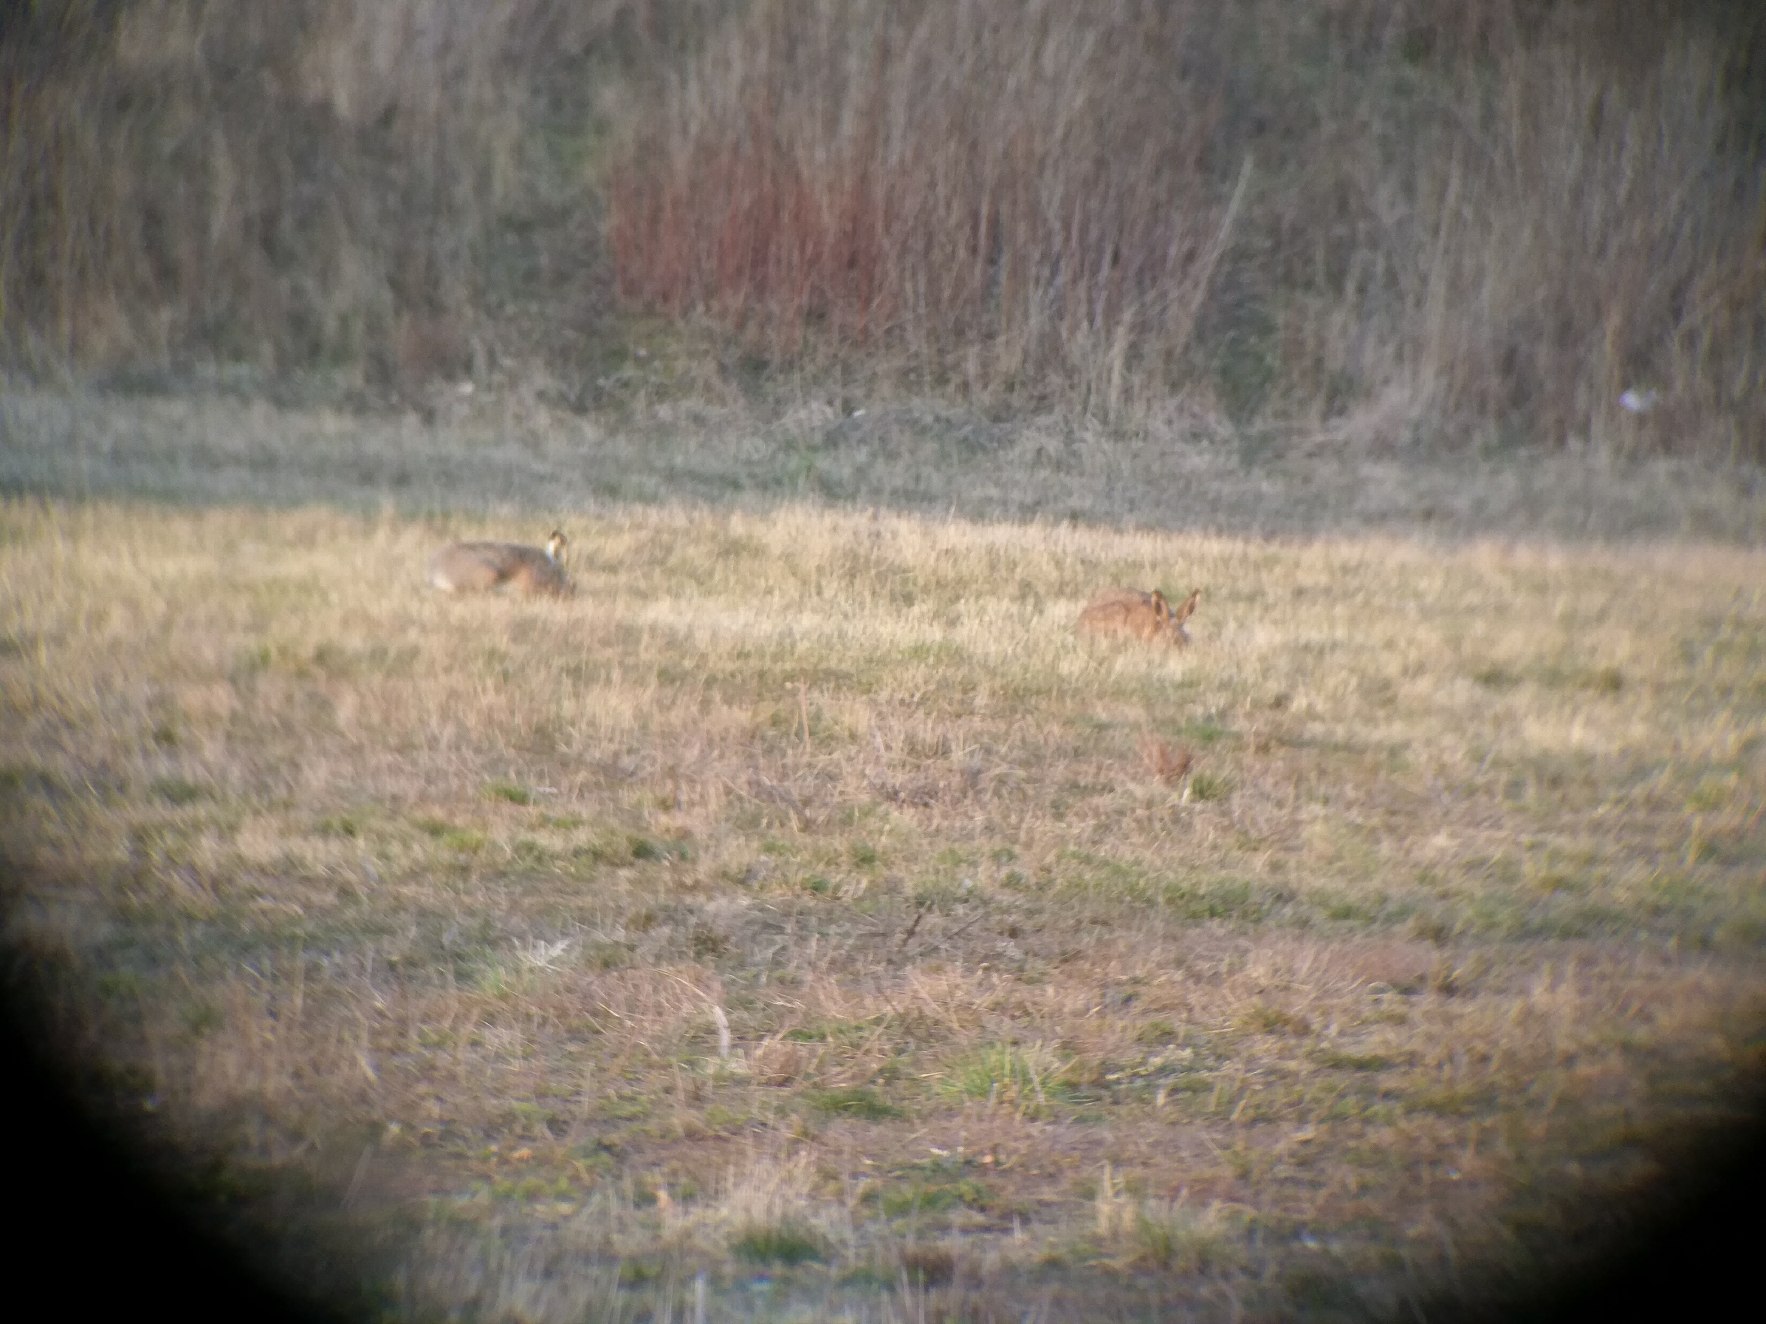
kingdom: Animalia
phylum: Chordata
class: Mammalia
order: Lagomorpha
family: Leporidae
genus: Lepus
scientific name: Lepus europaeus
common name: Hare
